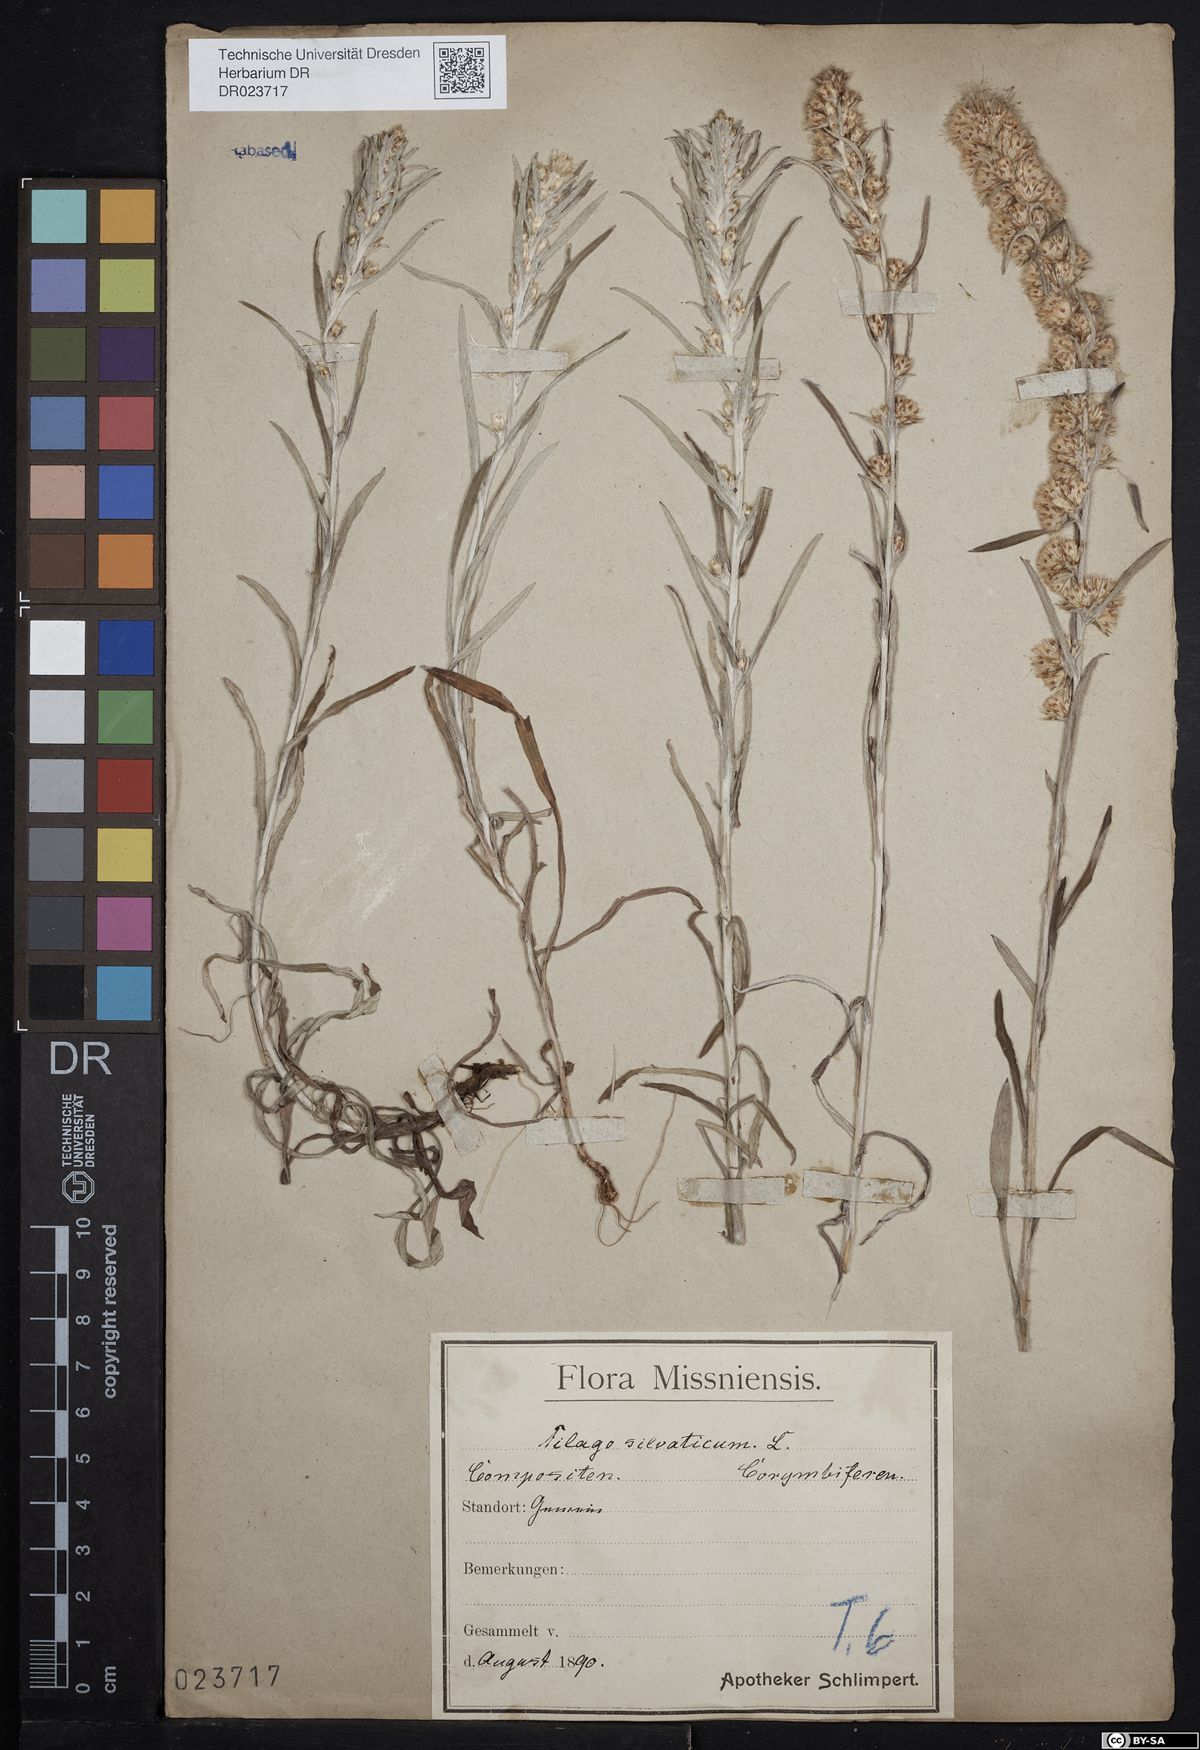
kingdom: Plantae
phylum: Tracheophyta
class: Magnoliopsida
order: Asterales
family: Asteraceae
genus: Omalotheca
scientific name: Omalotheca sylvatica
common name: Heath cudweed
